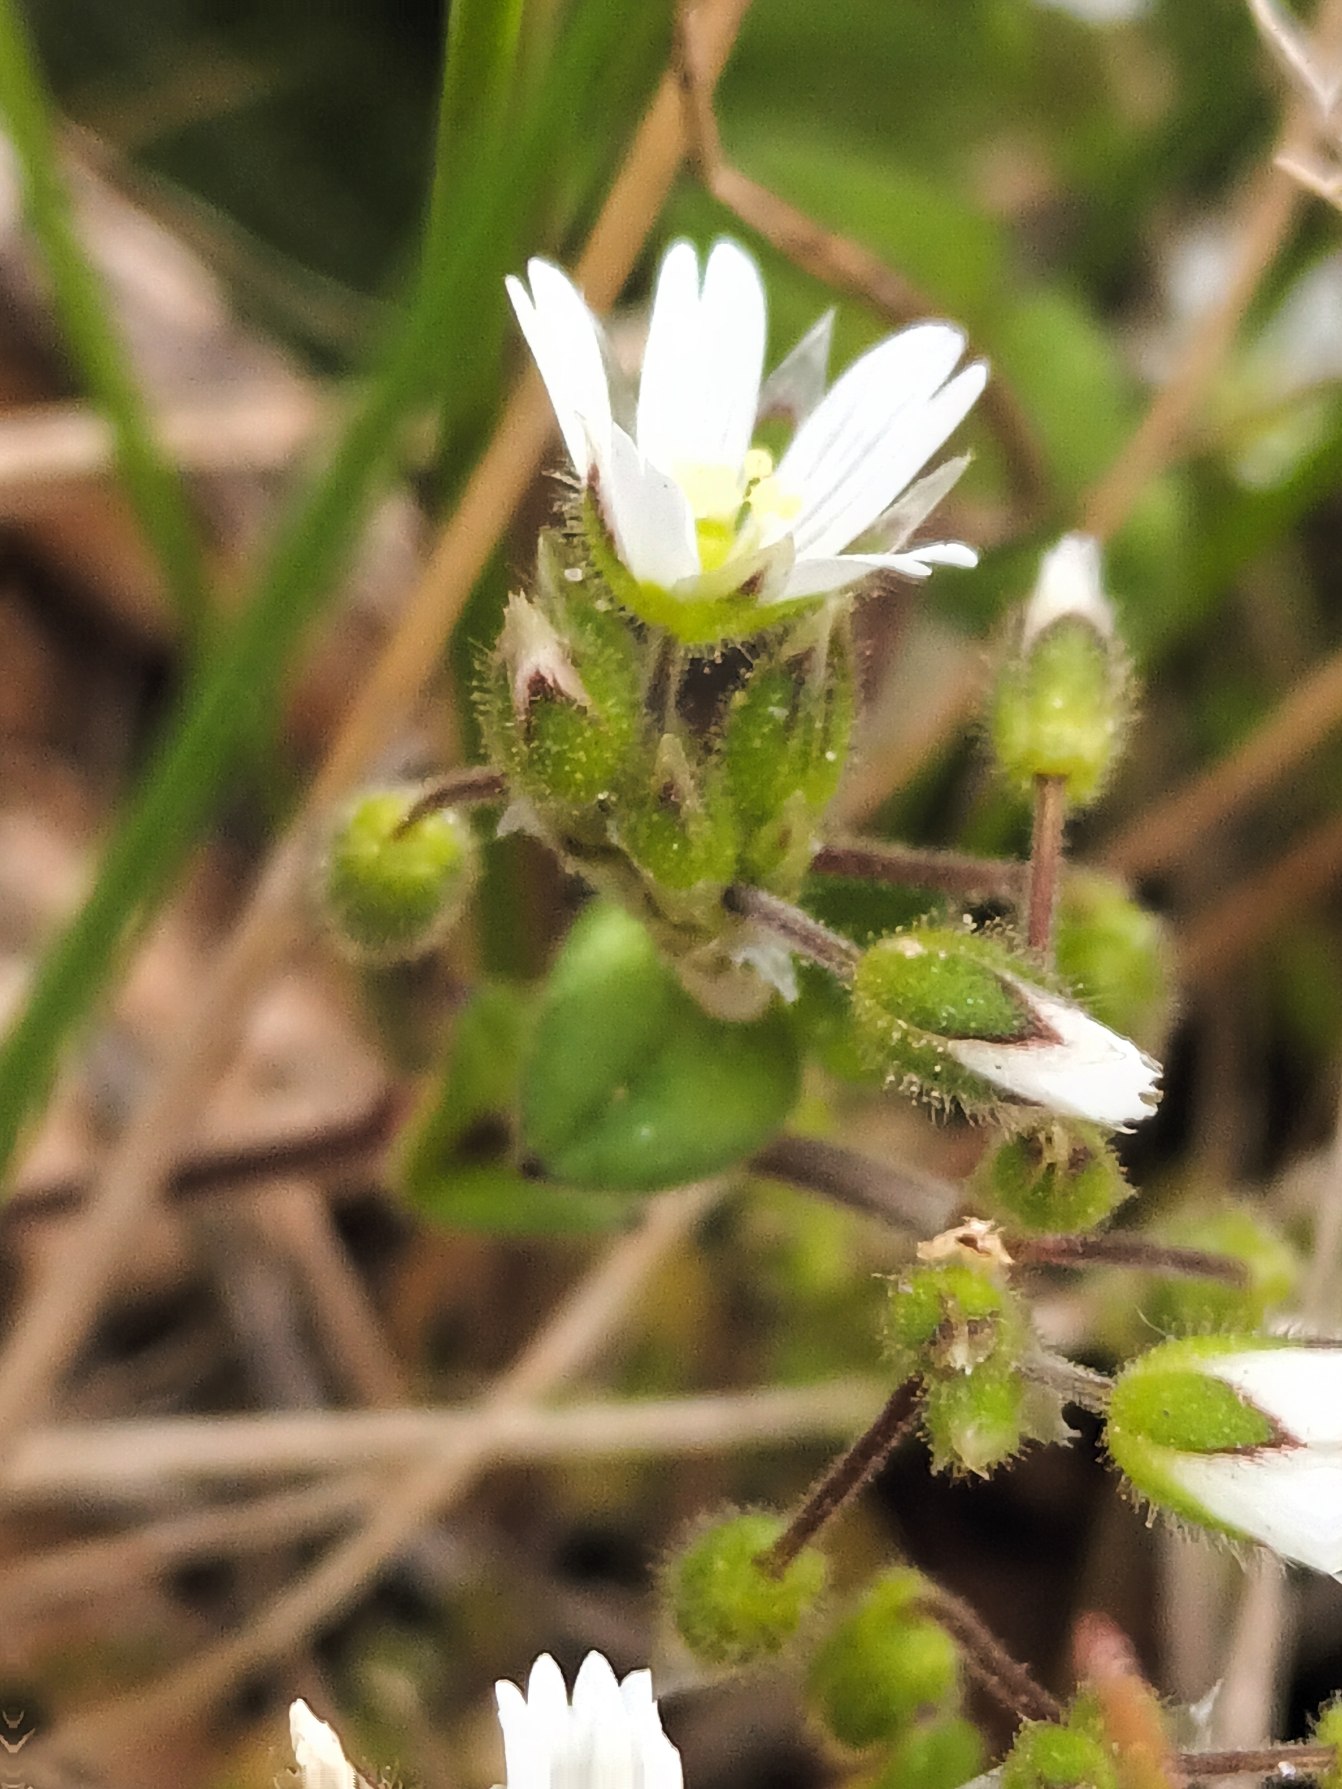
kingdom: Plantae
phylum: Tracheophyta
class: Magnoliopsida
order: Caryophyllales
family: Caryophyllaceae
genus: Cerastium
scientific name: Cerastium semidecandrum
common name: Femhannet hønsetarm
